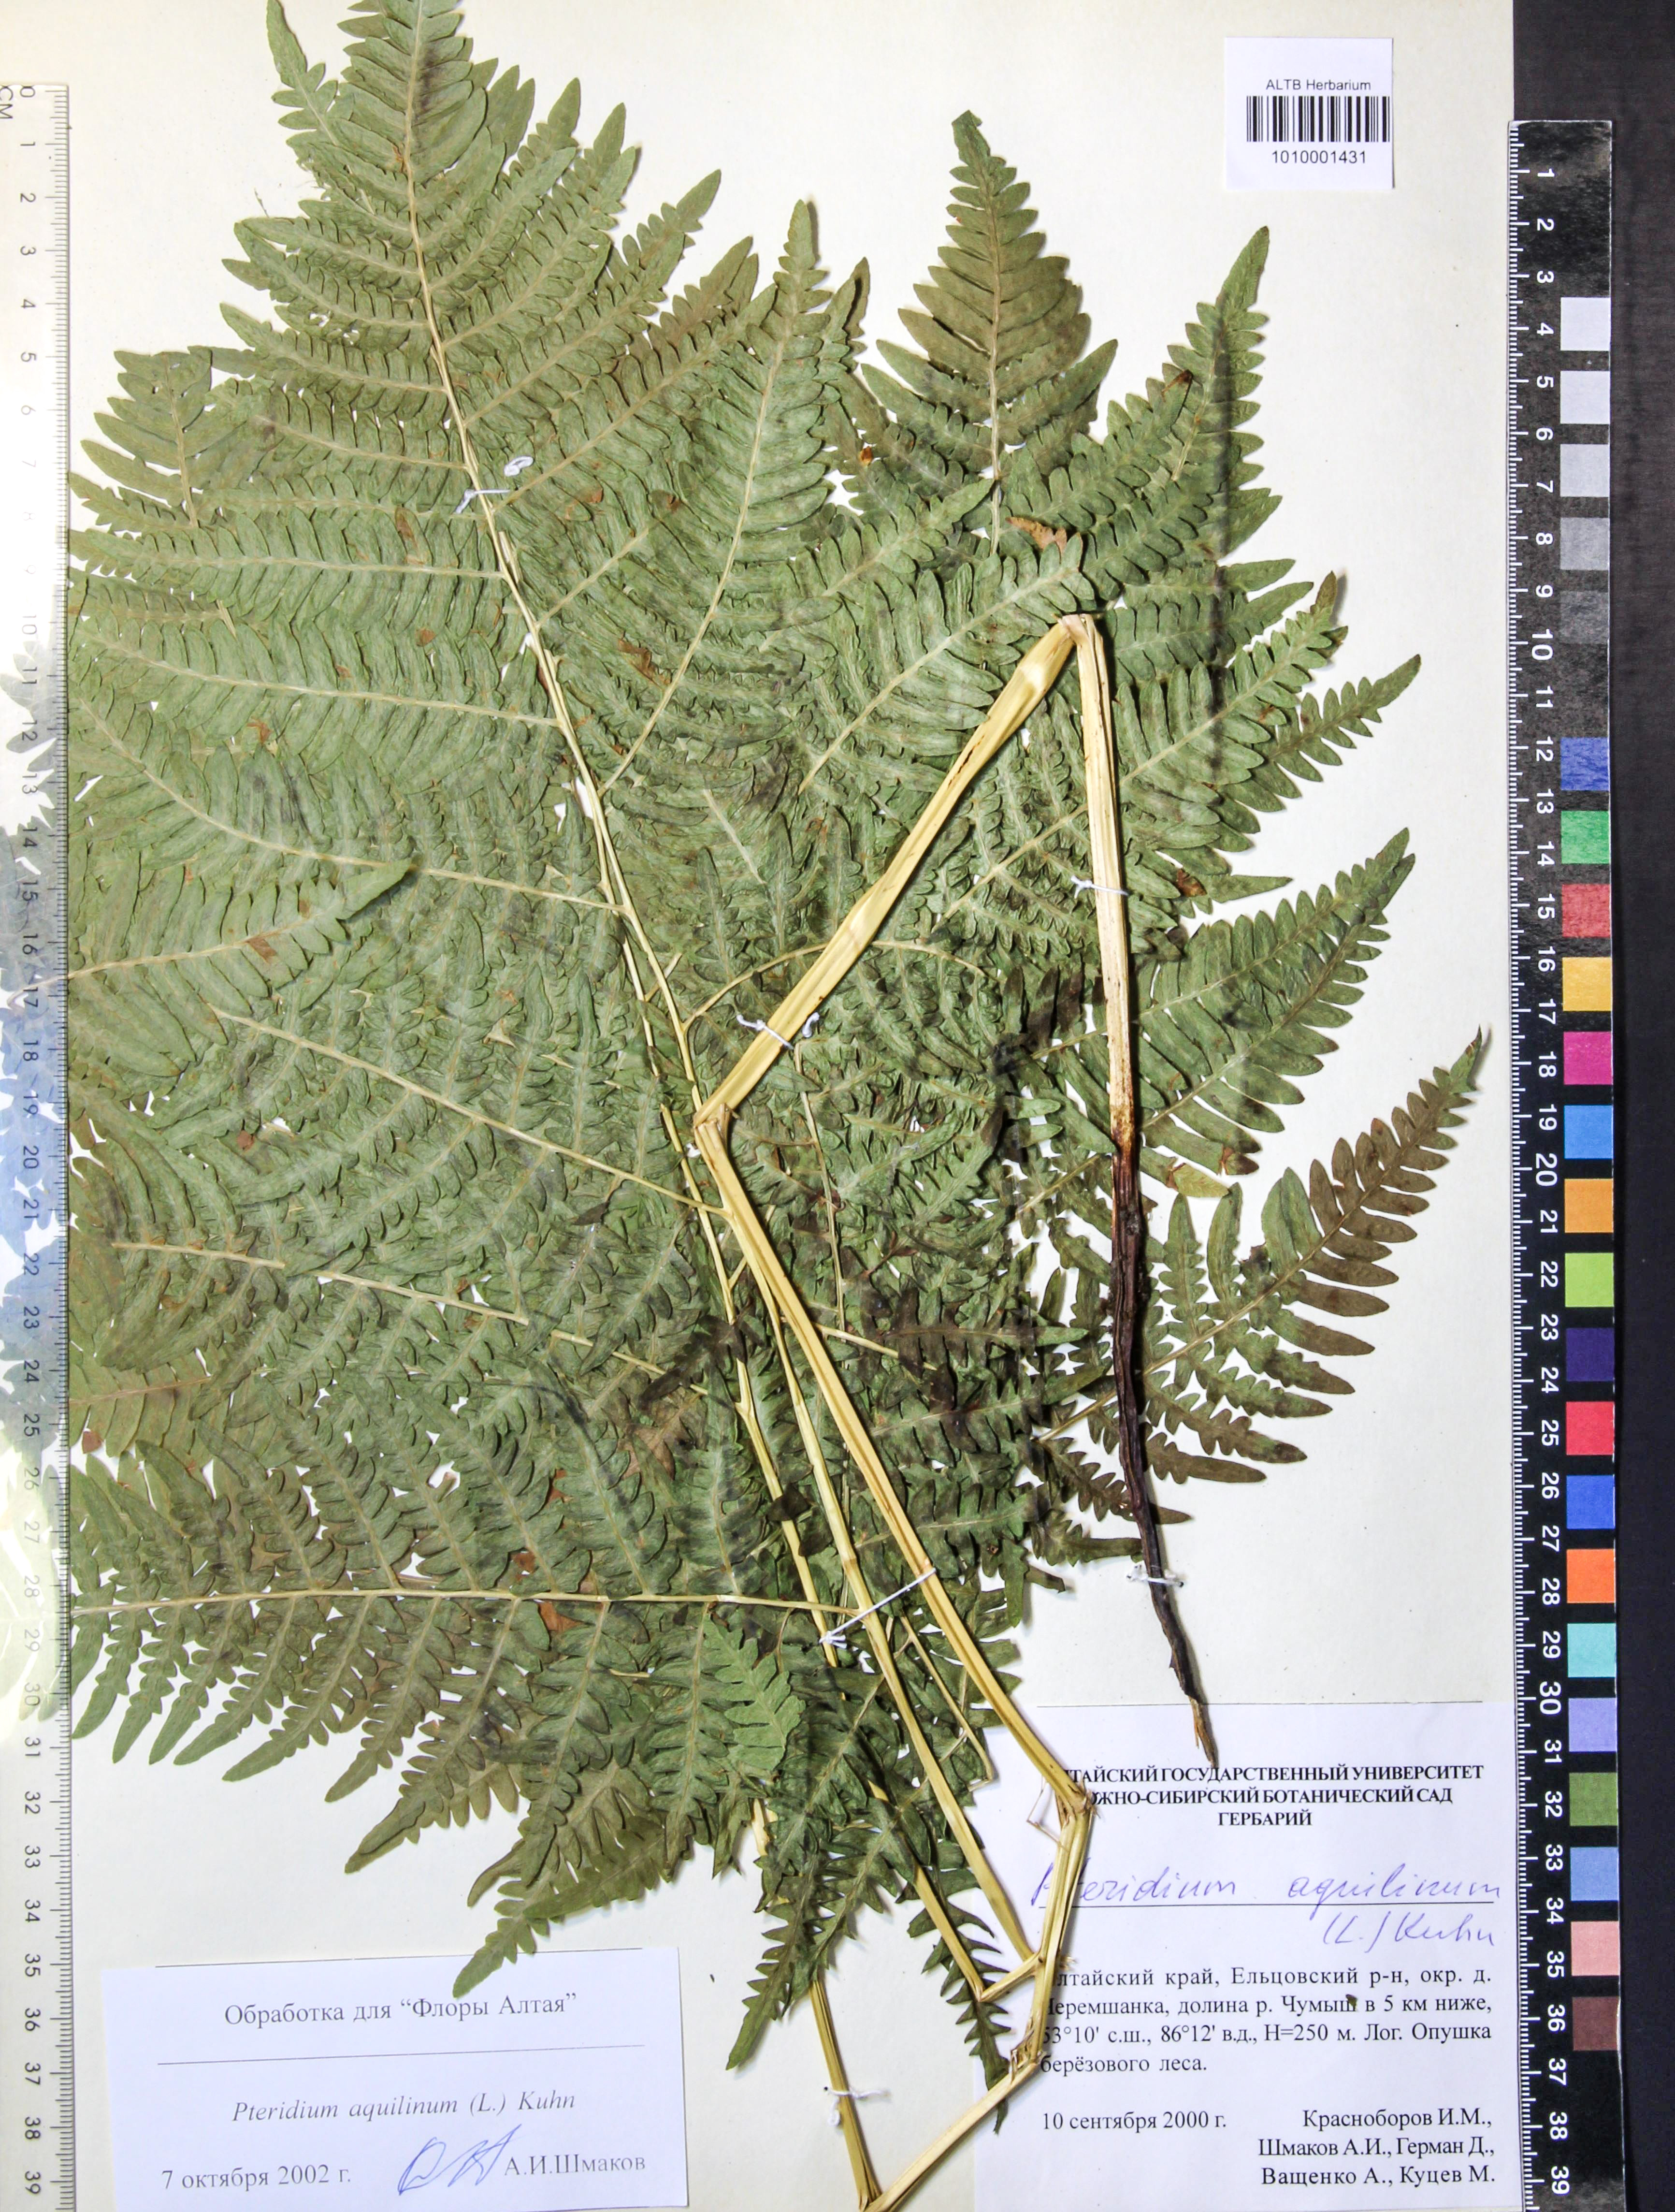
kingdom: Plantae
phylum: Tracheophyta
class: Polypodiopsida
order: Polypodiales
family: Dennstaedtiaceae
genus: Pteridium
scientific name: Pteridium aquilinum
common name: Bracken
